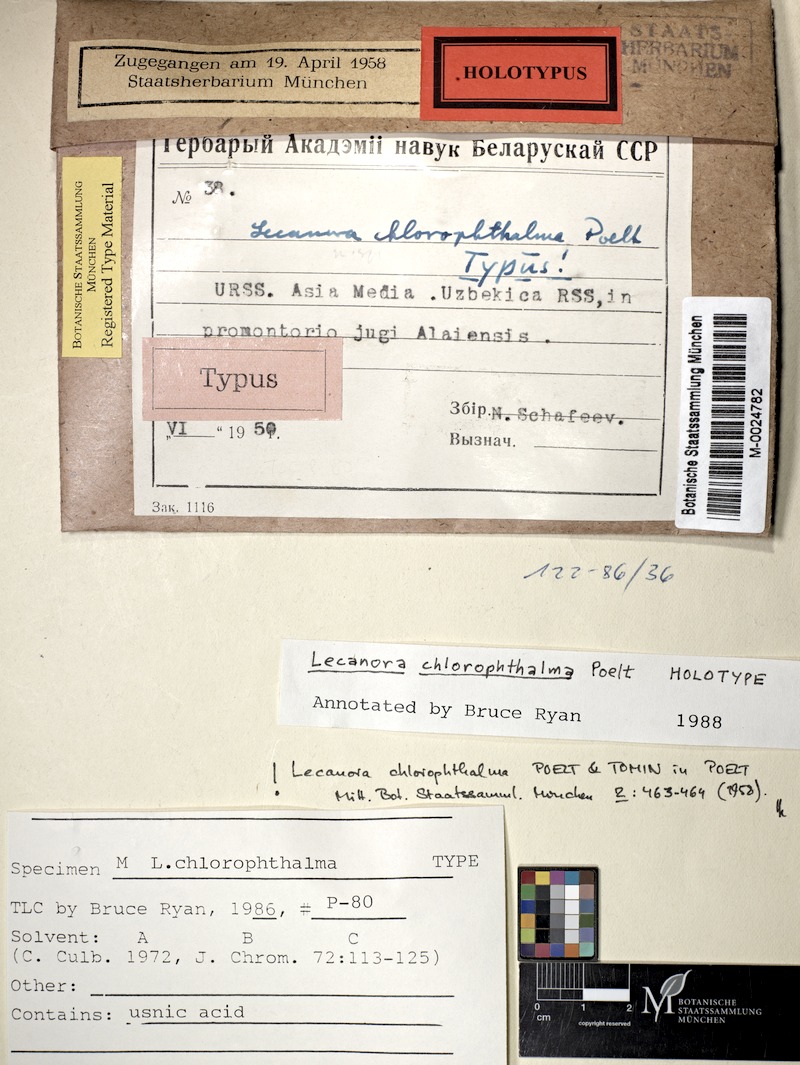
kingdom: Fungi
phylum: Ascomycota
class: Lecanoromycetes
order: Lecanorales
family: Lecanoraceae
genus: Protoparmeliopsis
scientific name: Protoparmeliopsis chlorophthalma
